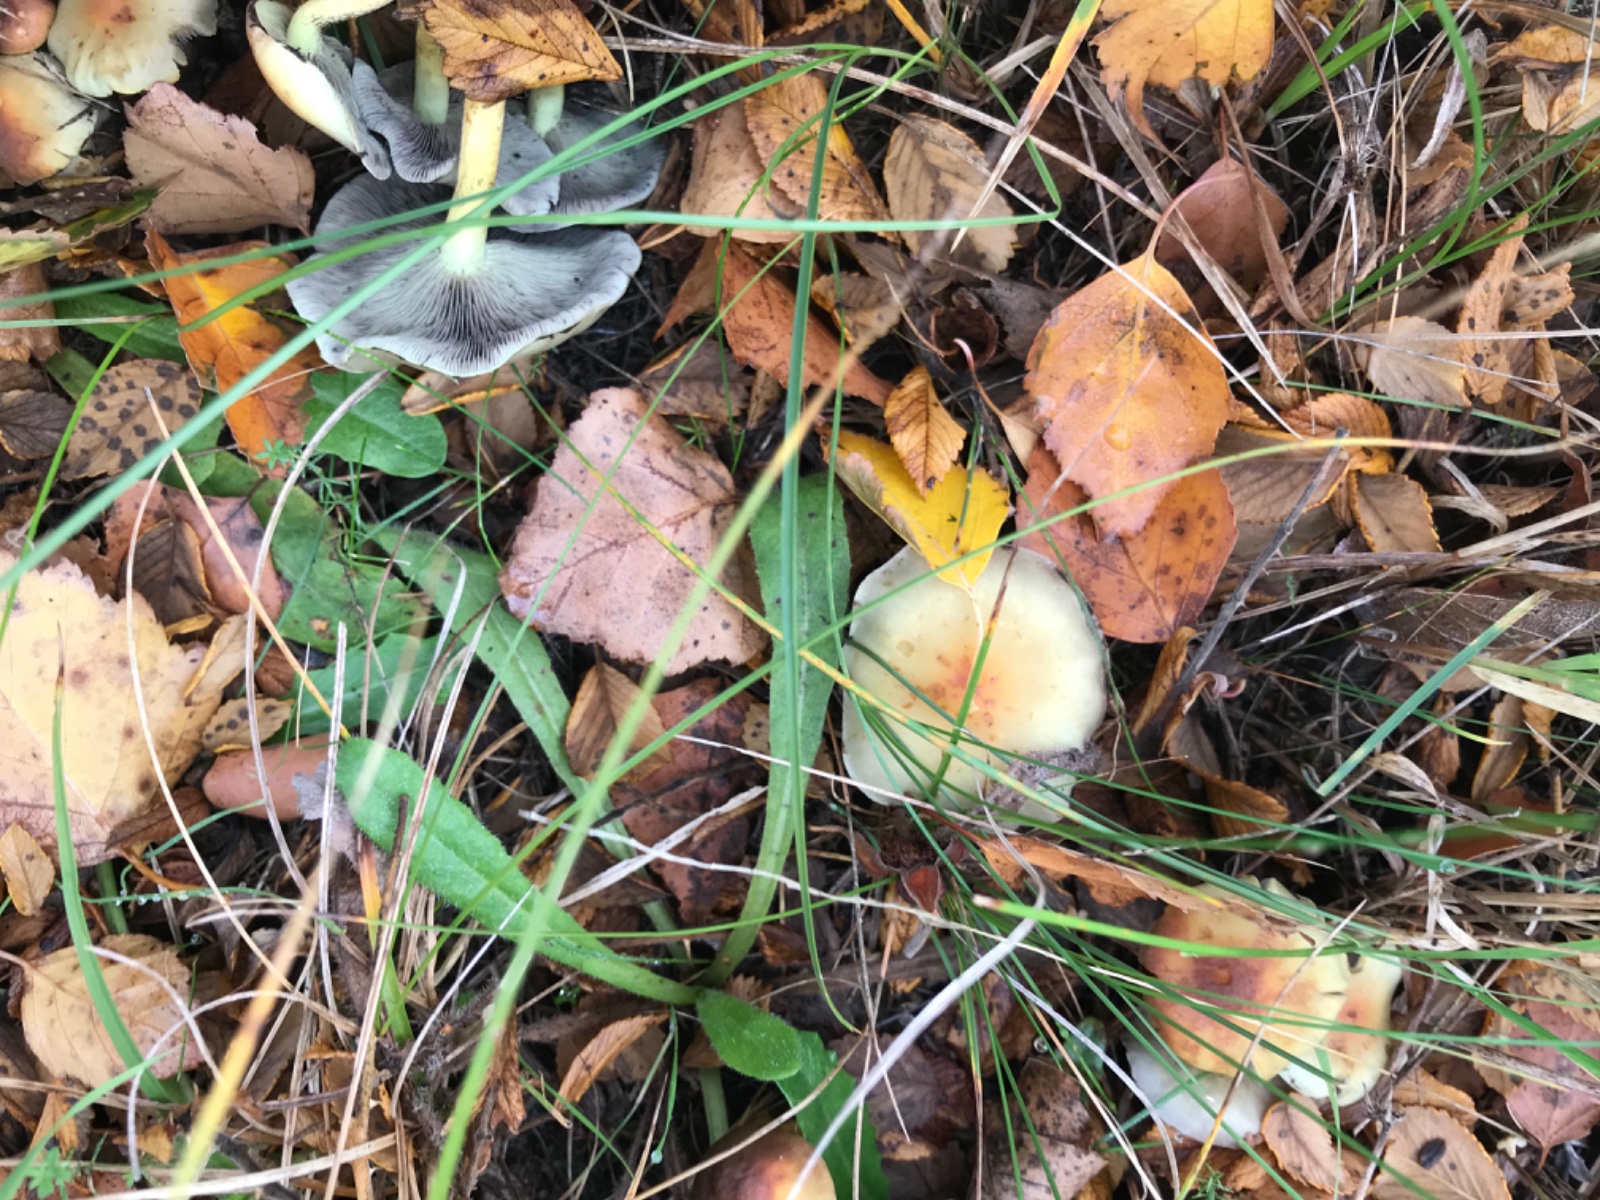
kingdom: Fungi
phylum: Basidiomycota
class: Agaricomycetes
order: Agaricales
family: Strophariaceae
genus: Hypholoma
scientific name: Hypholoma fasciculare
